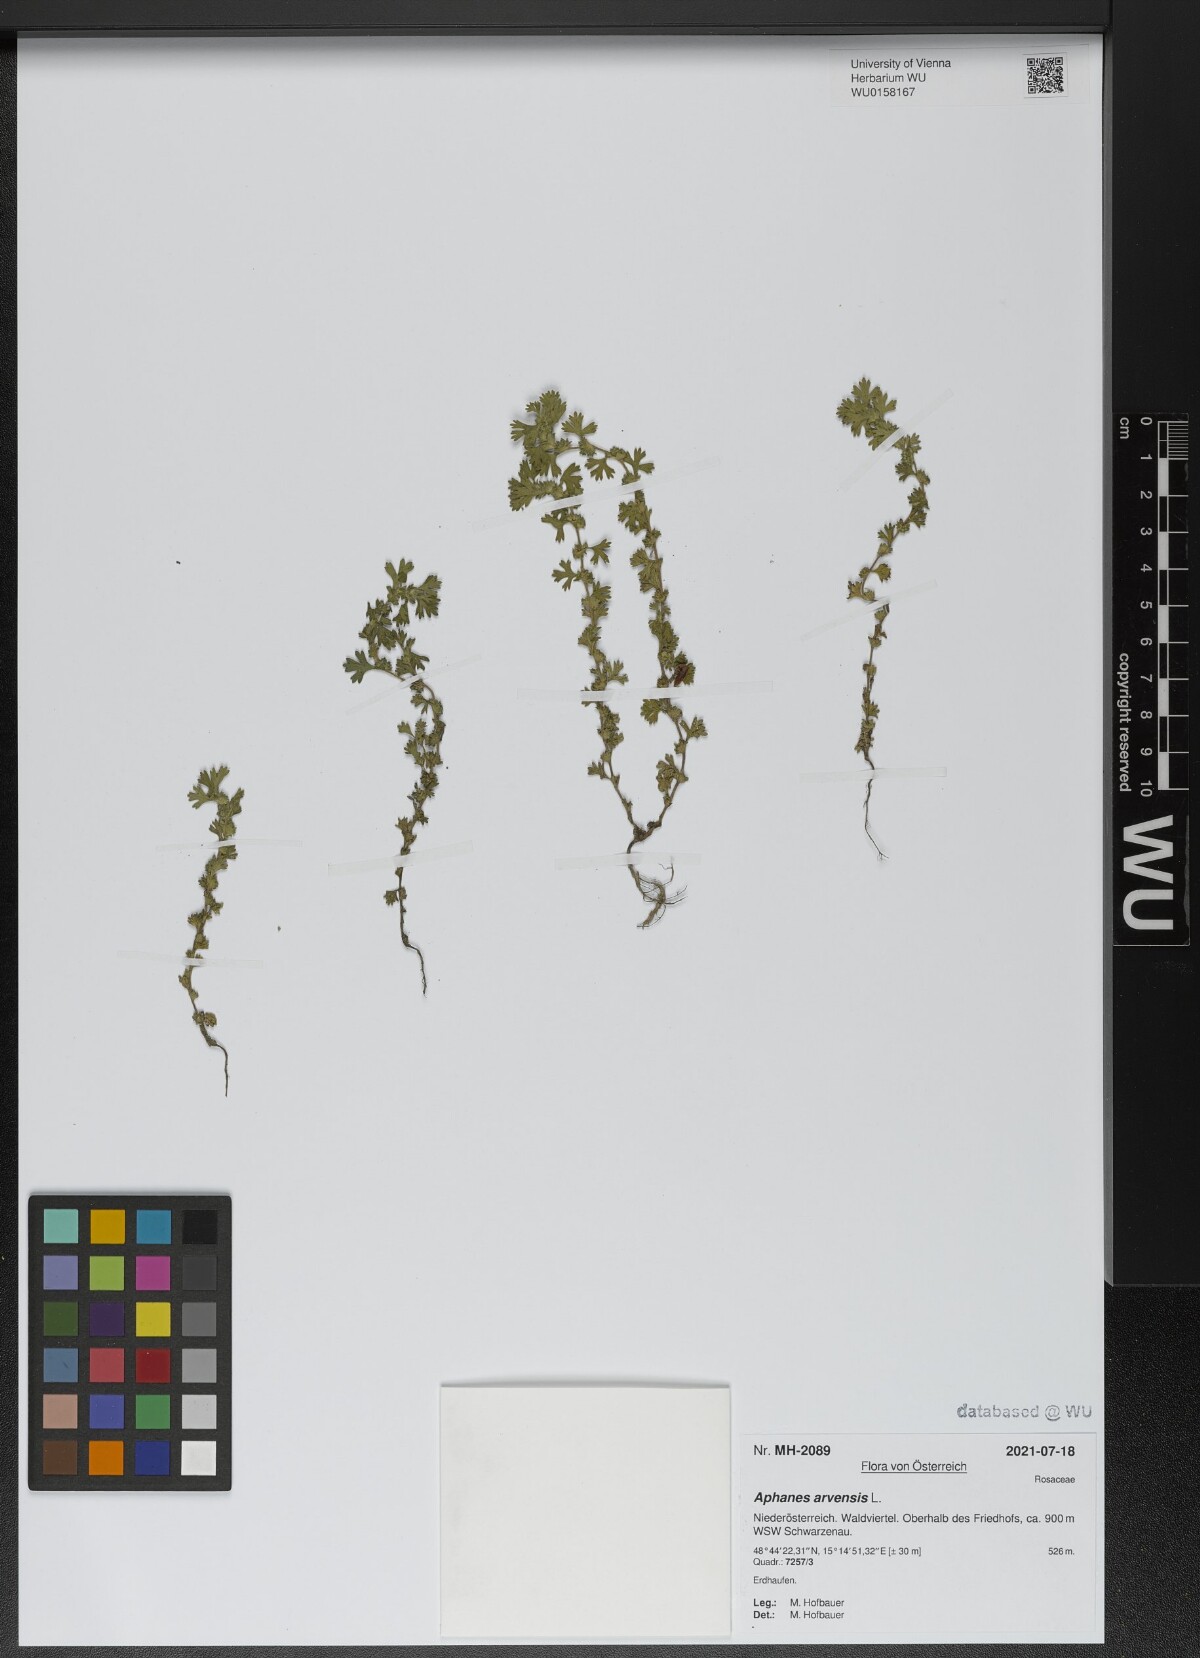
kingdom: Plantae
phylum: Tracheophyta
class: Magnoliopsida
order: Rosales
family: Rosaceae
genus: Aphanes
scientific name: Aphanes arvensis
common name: Parsley-piert
